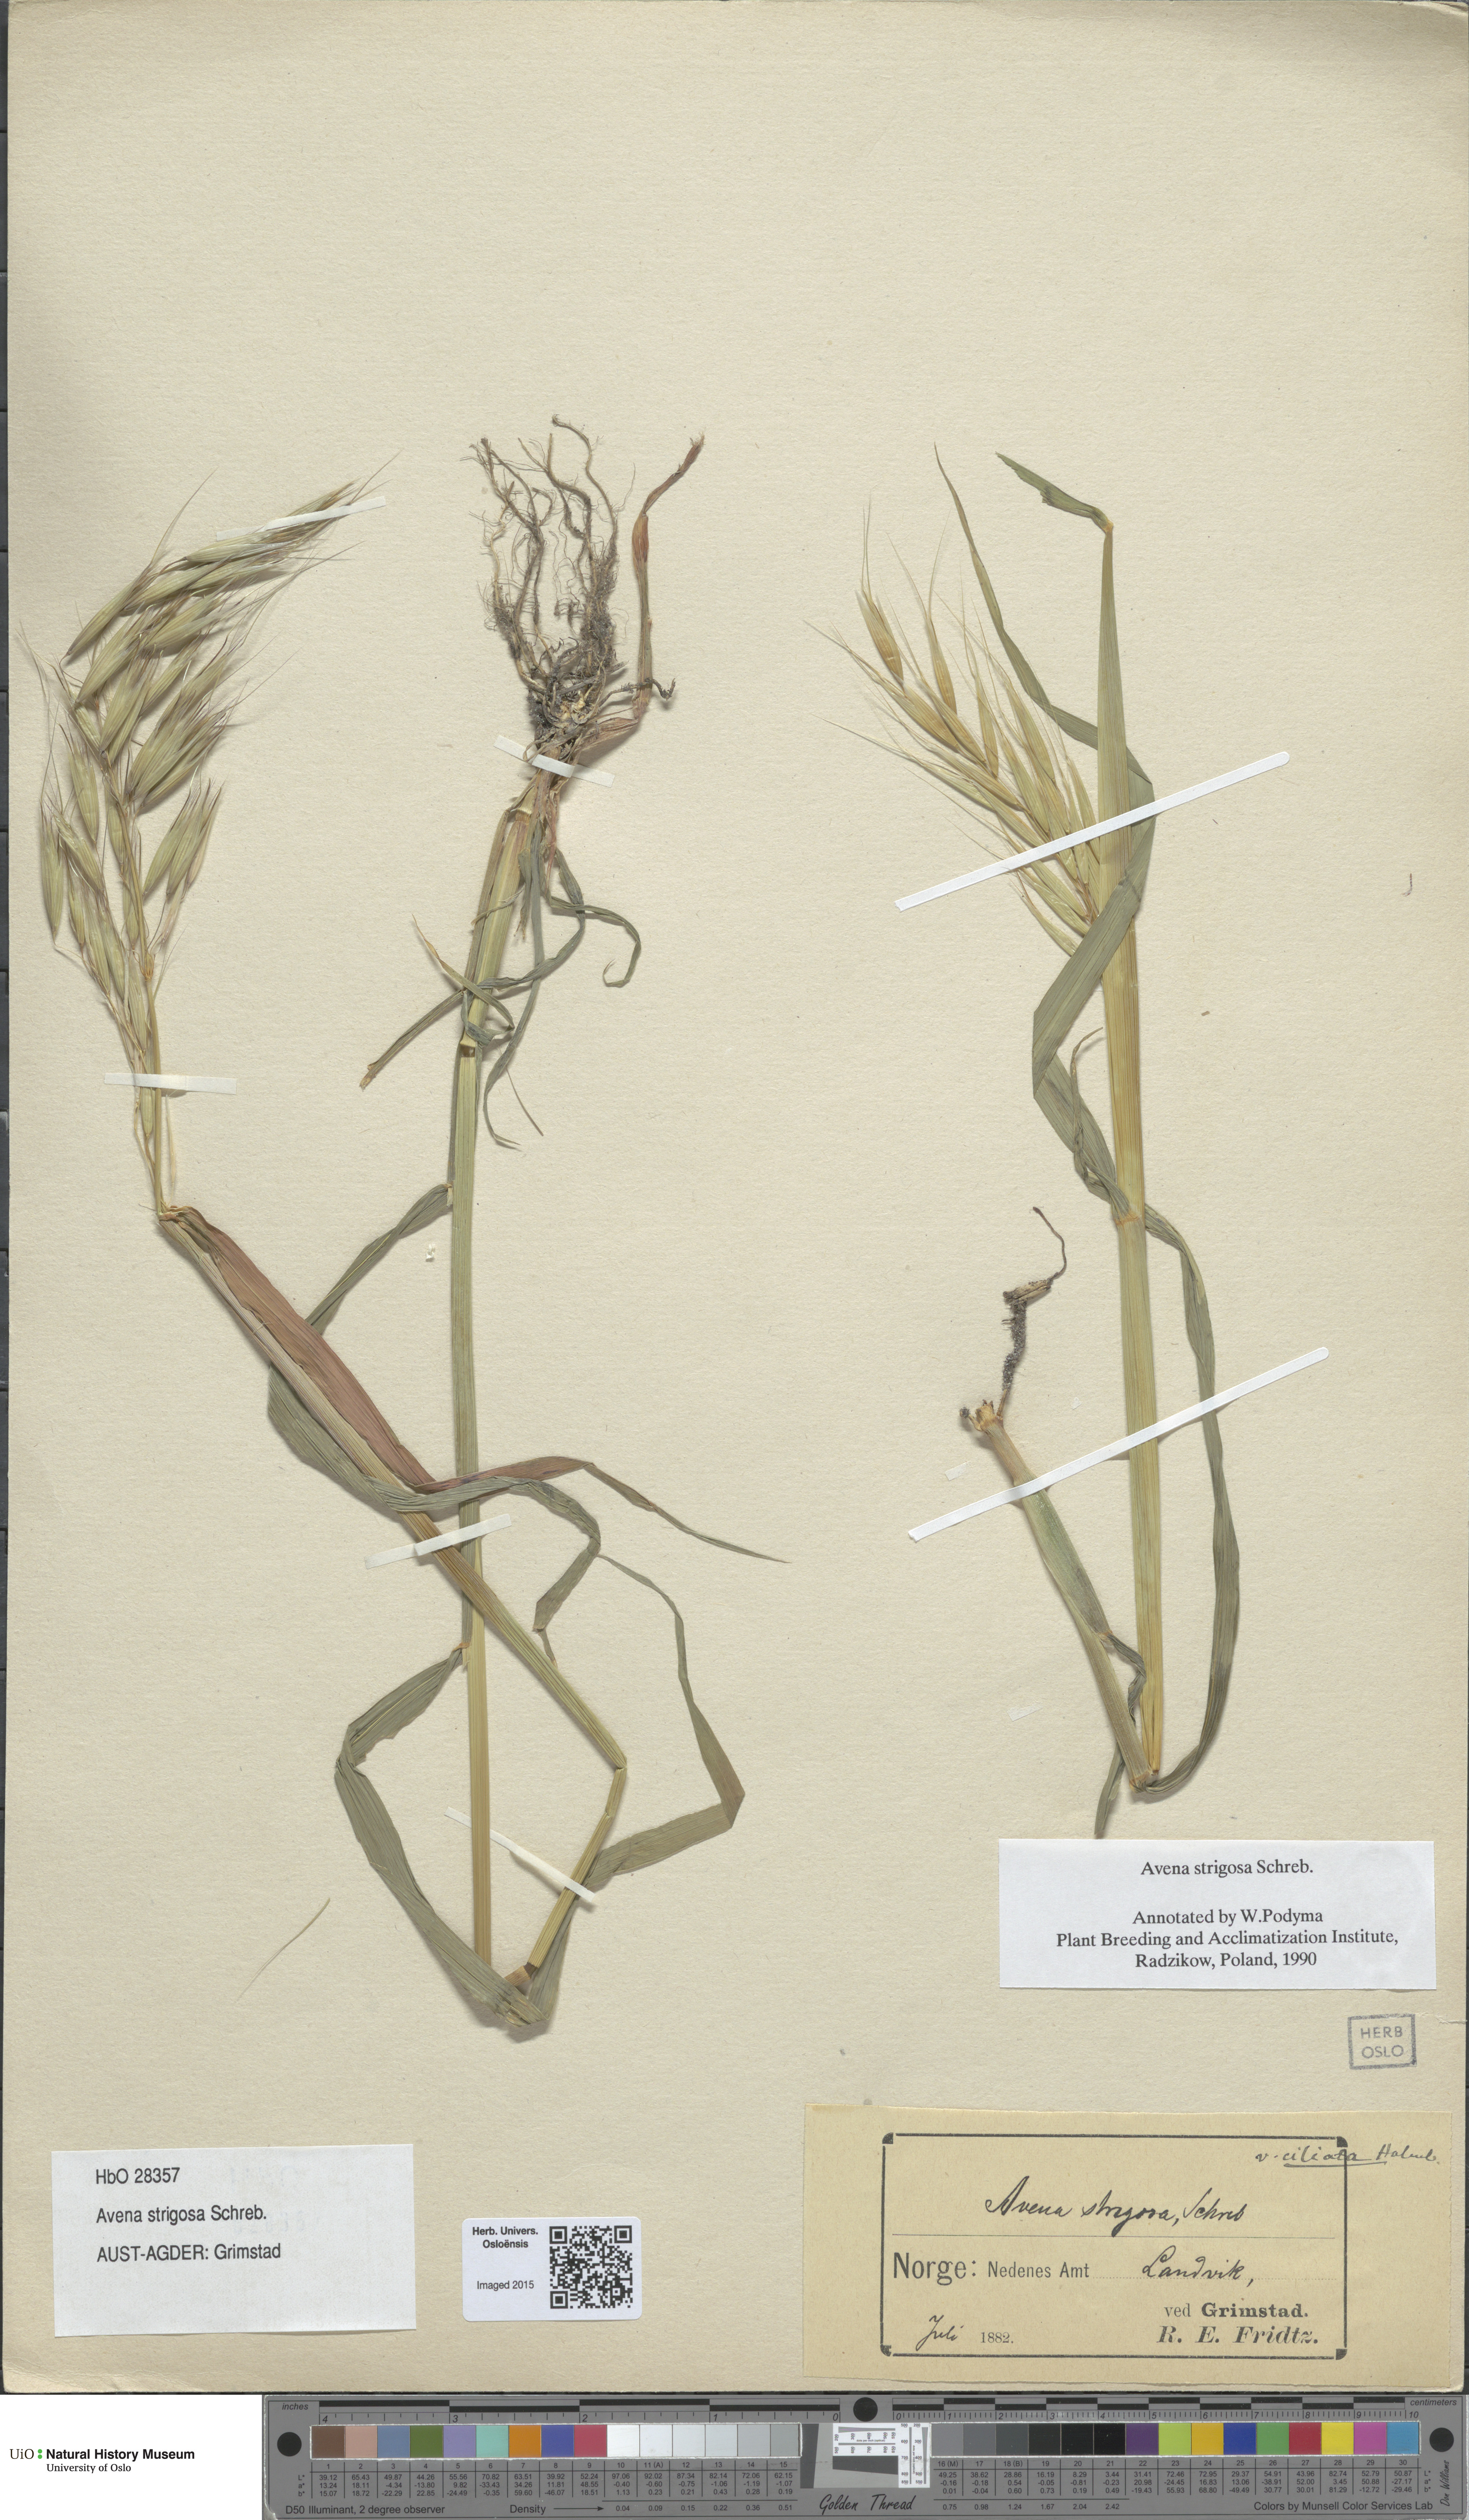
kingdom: Plantae
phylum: Tracheophyta
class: Liliopsida
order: Poales
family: Poaceae
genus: Avena
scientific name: Avena strigosa
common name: Bristle oat
